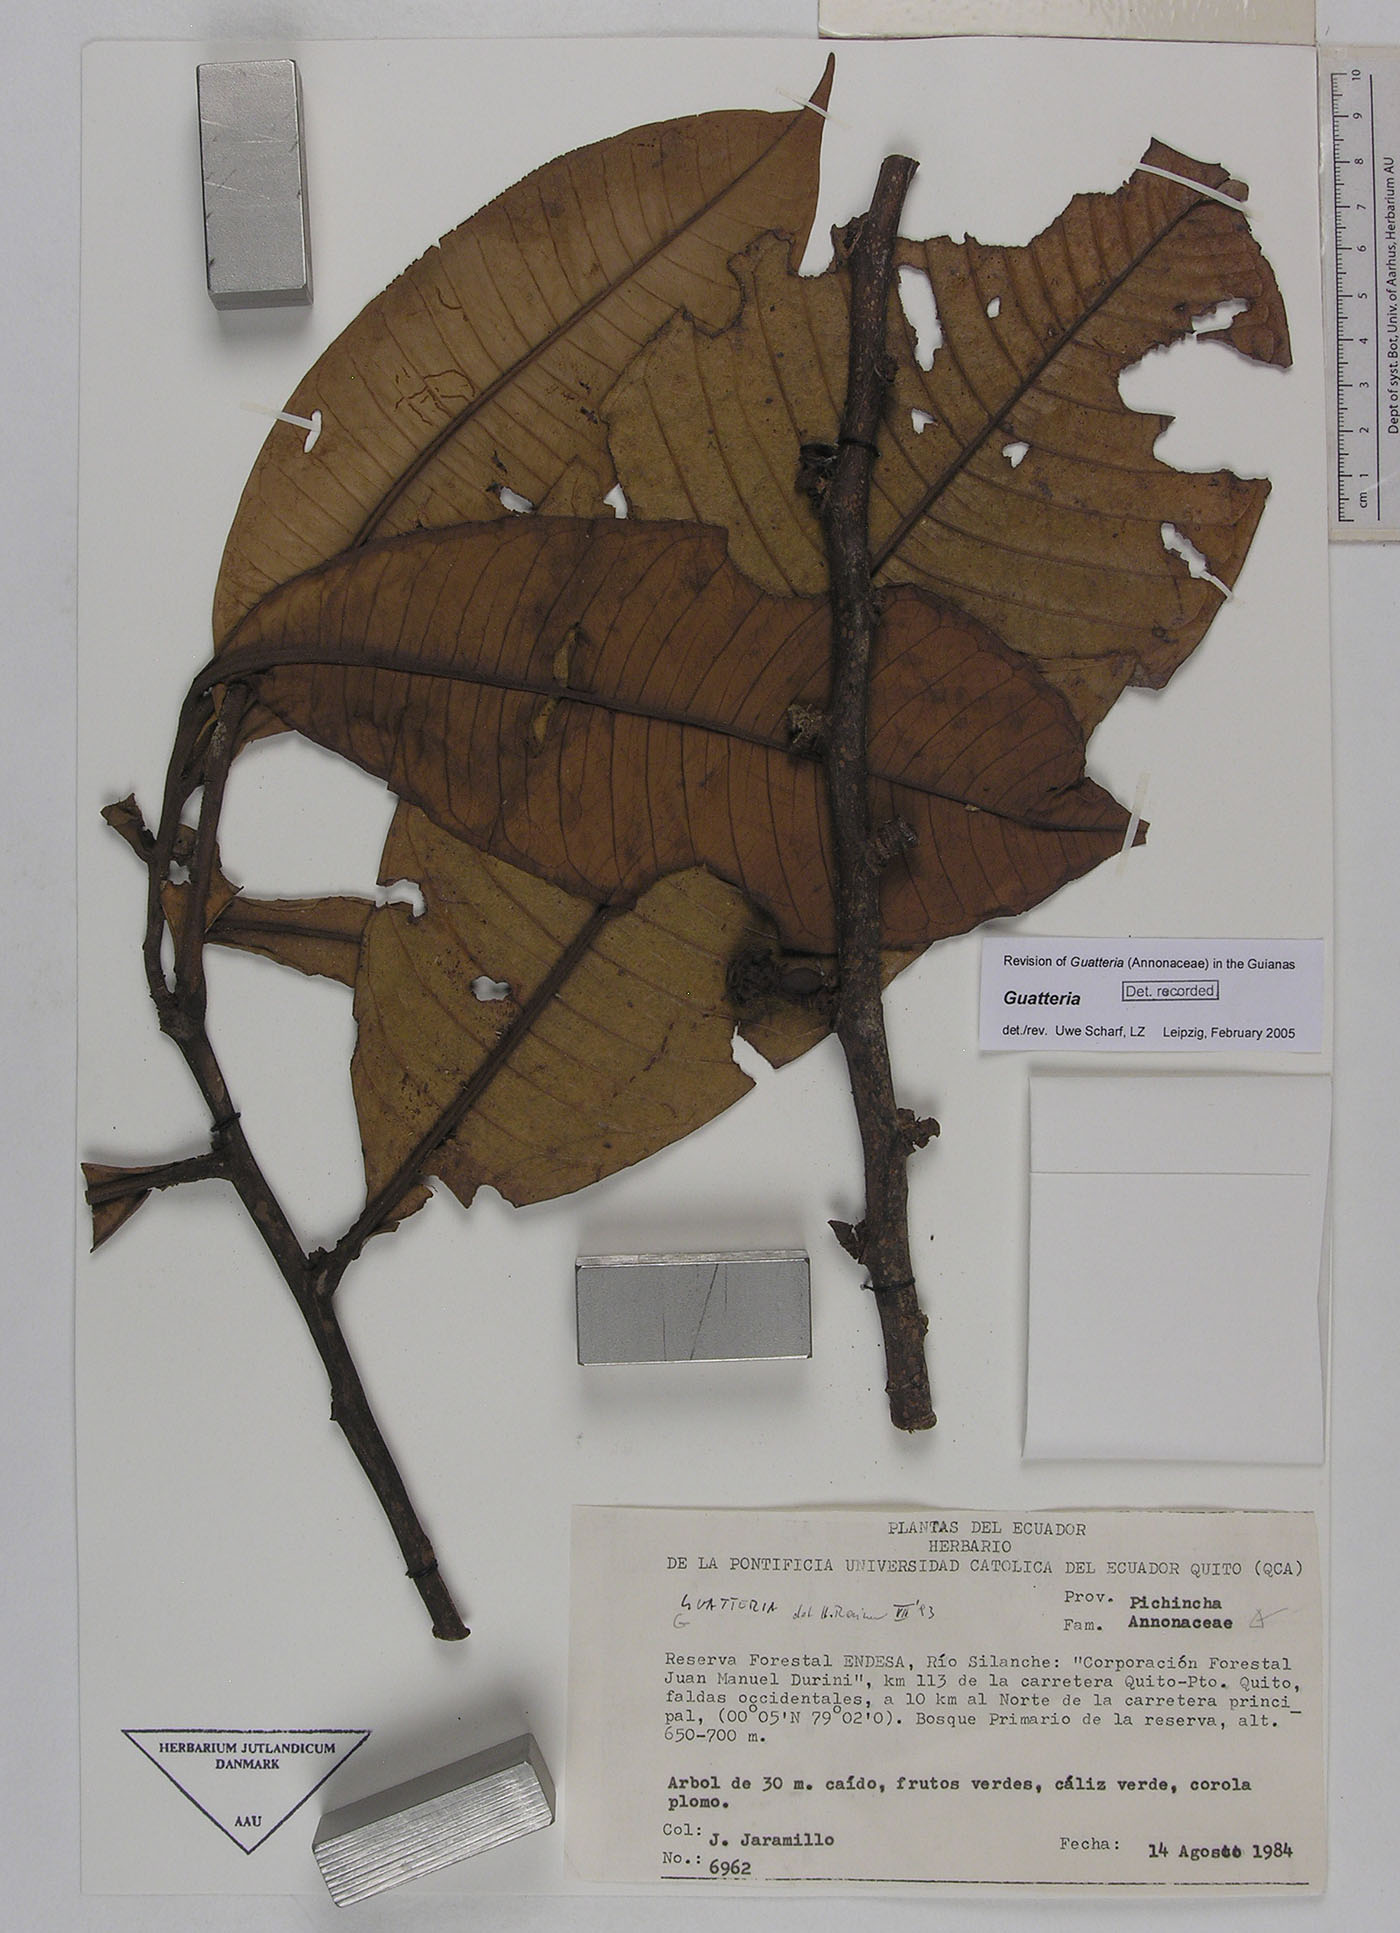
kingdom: Plantae
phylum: Tracheophyta
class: Magnoliopsida
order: Magnoliales
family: Annonaceae
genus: Guatteria
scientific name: Guatteria venosa
